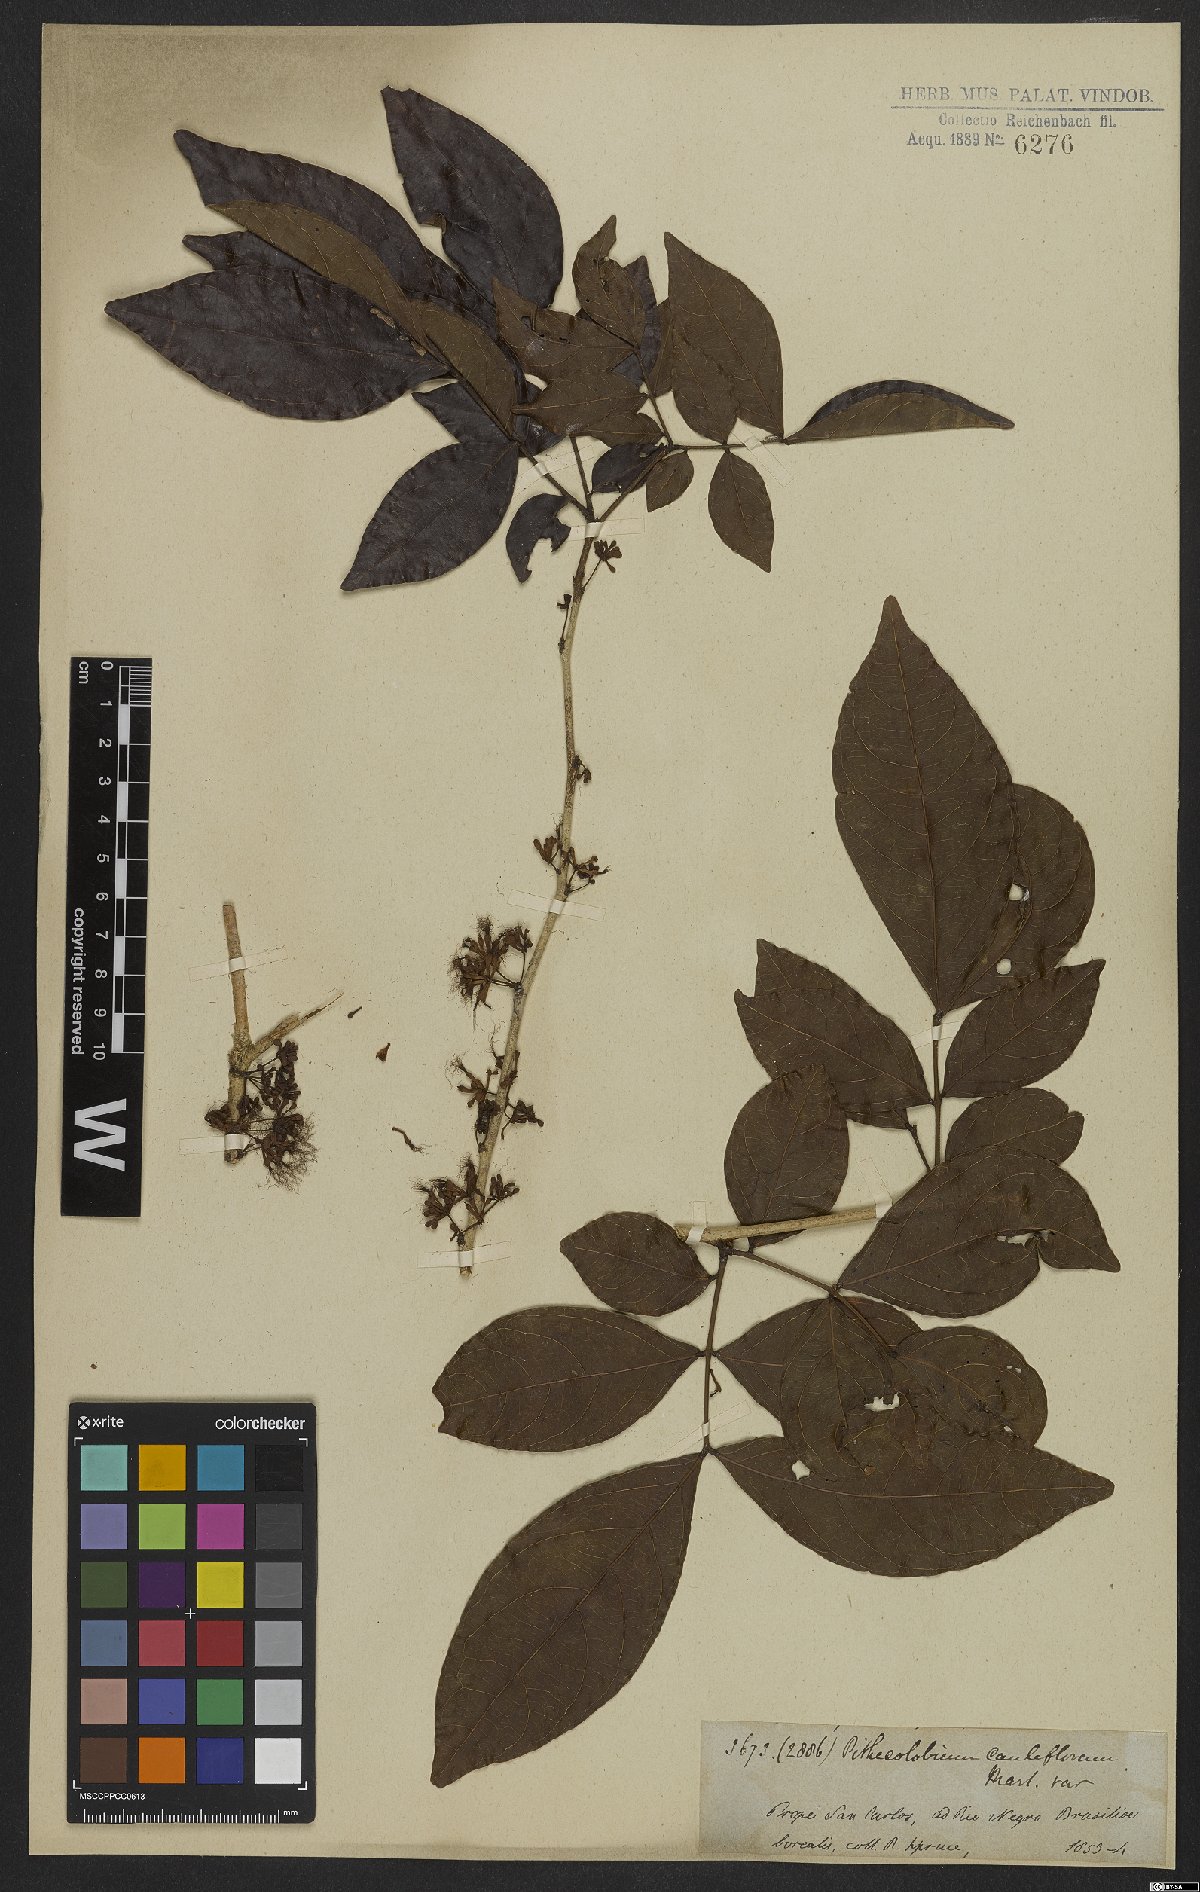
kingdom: Plantae
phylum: Tracheophyta
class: Magnoliopsida
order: Fabales
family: Fabaceae
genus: Zygia
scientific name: Zygia cauliflora
